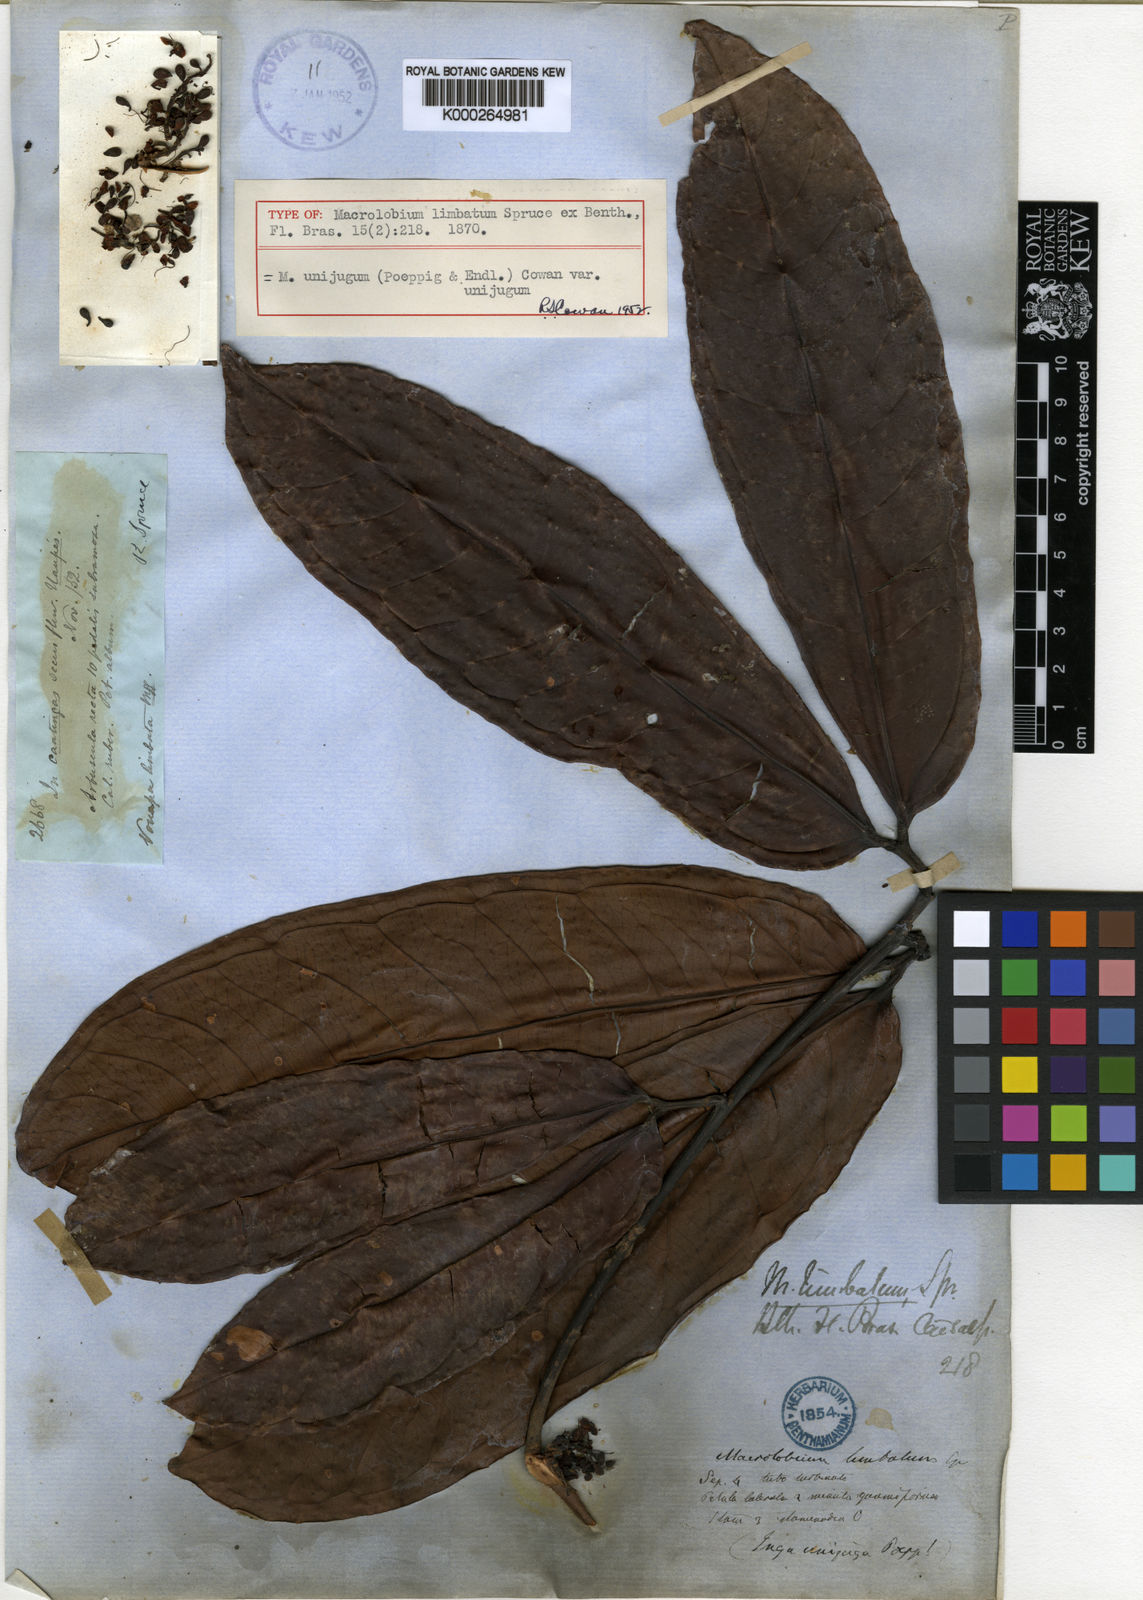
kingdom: Plantae
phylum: Tracheophyta
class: Magnoliopsida
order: Fabales
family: Fabaceae
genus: Macrolobium
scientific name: Macrolobium limbatum
